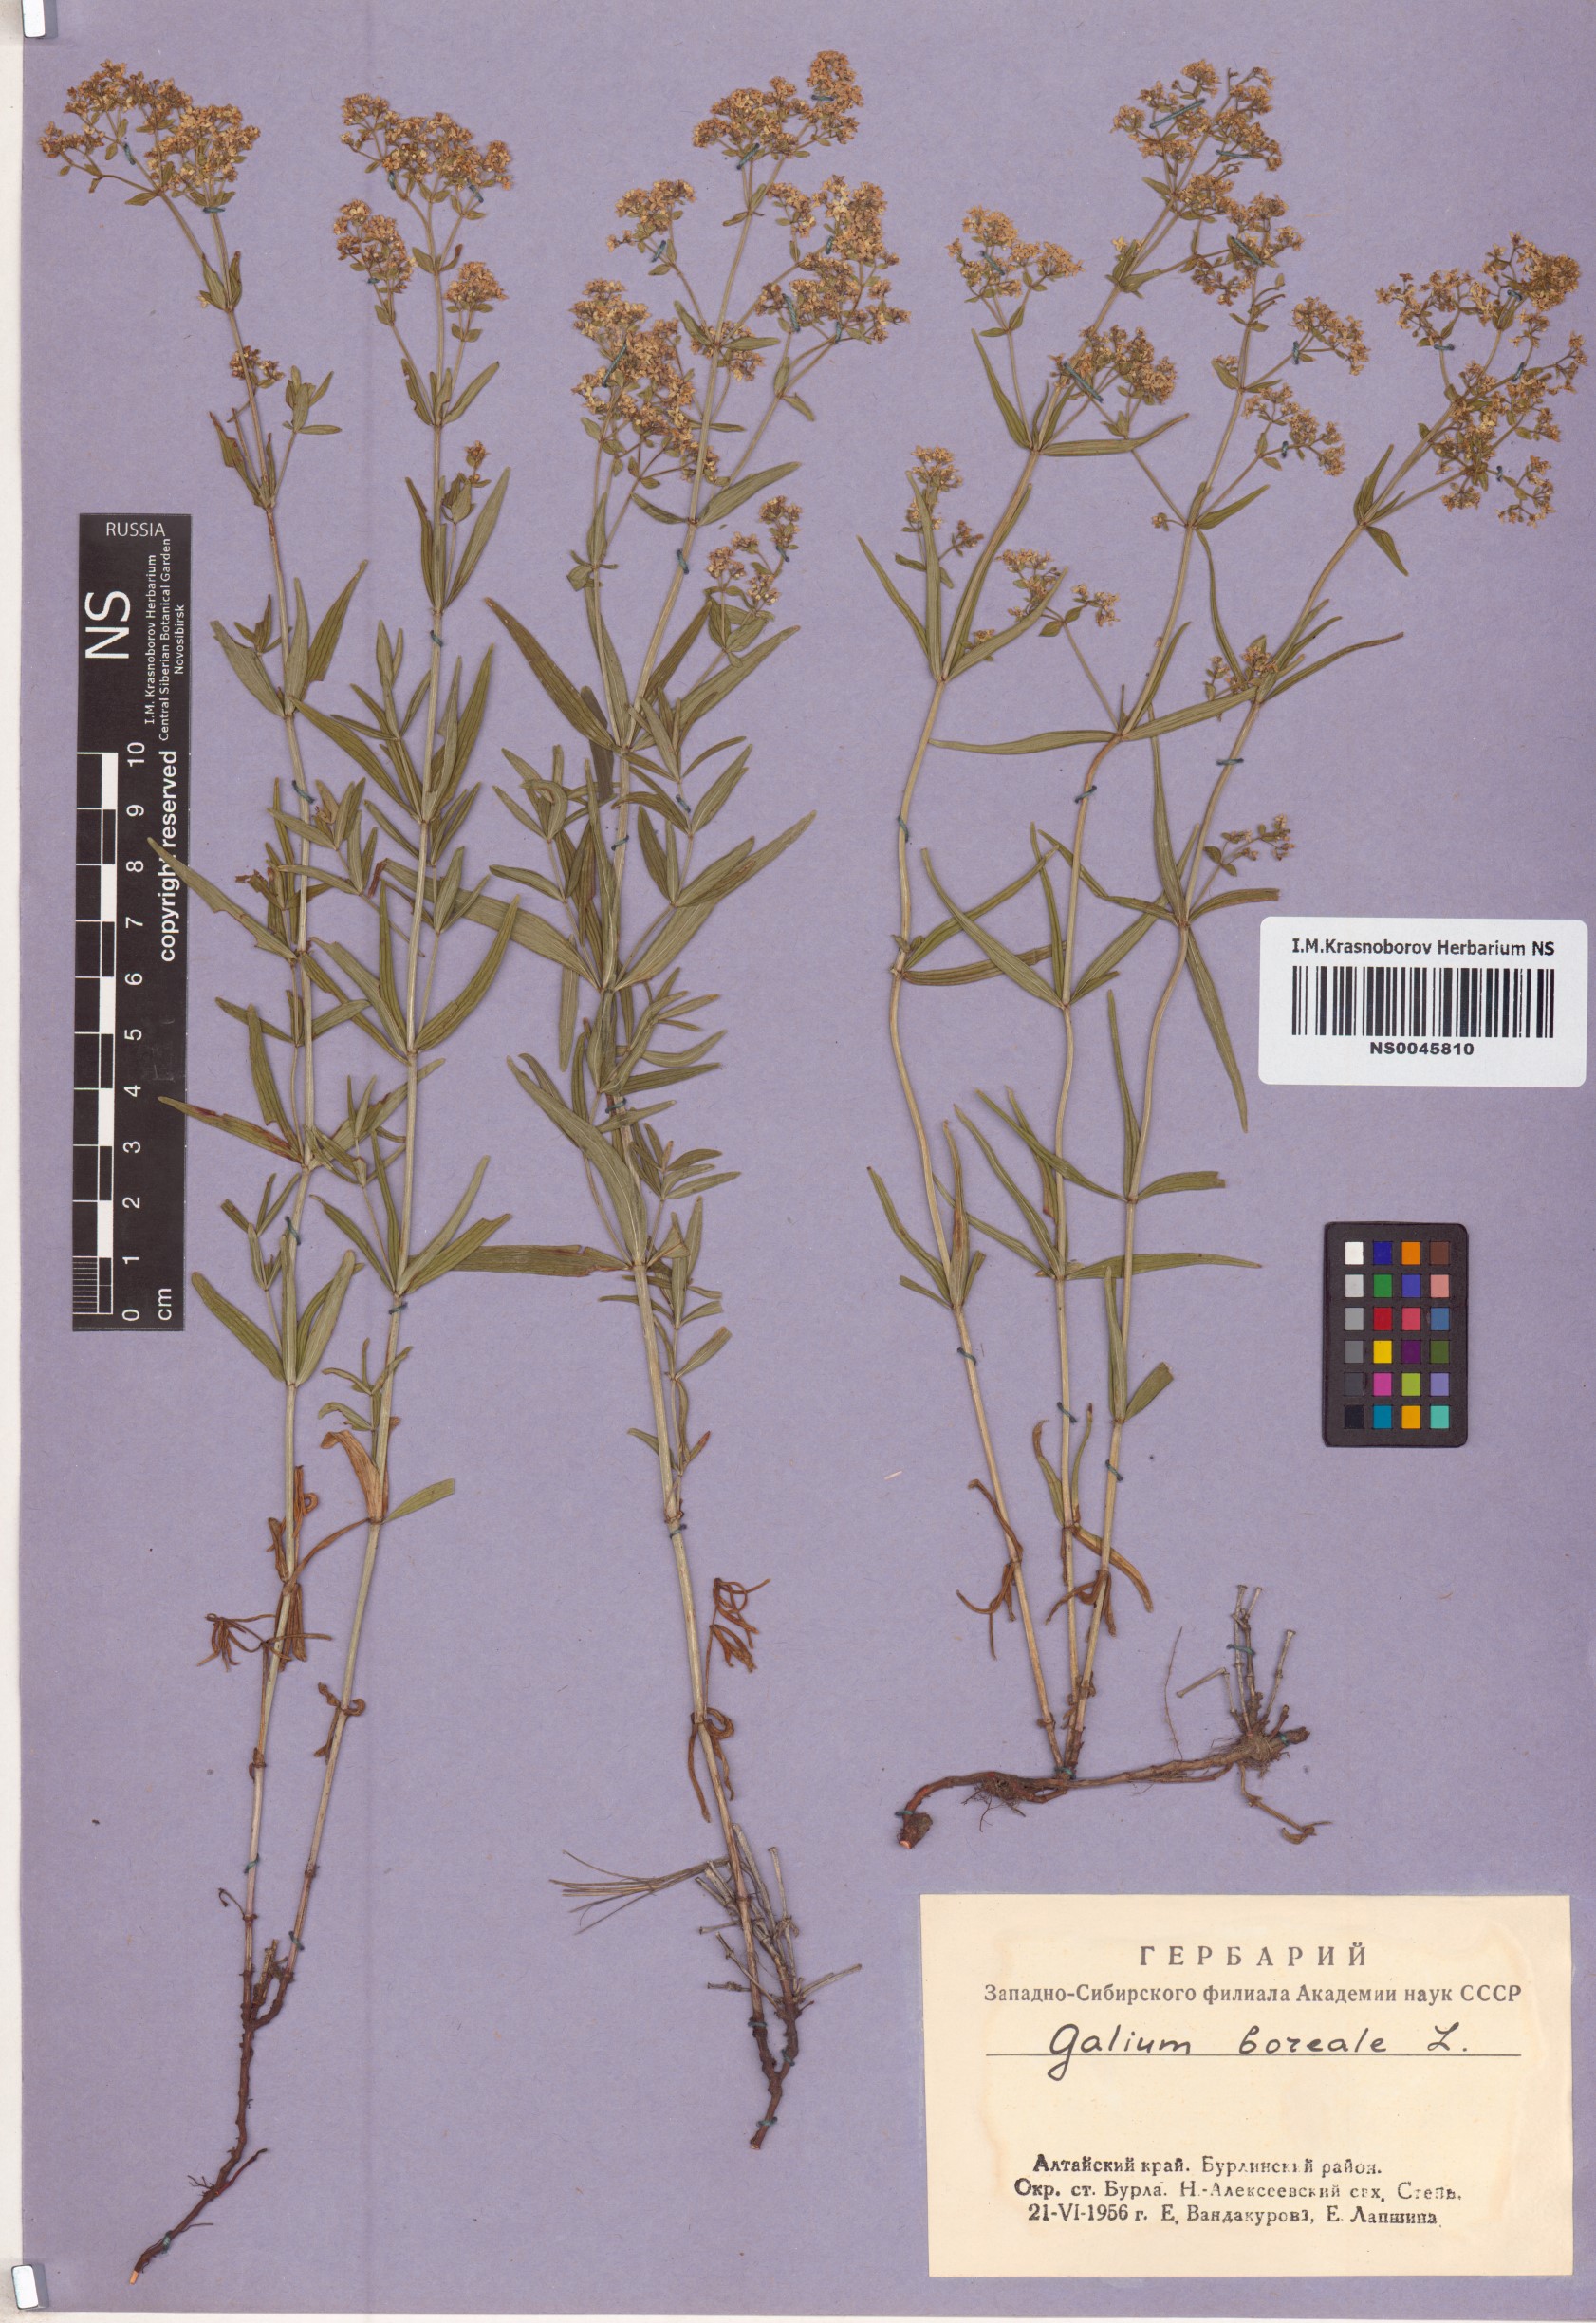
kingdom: Plantae
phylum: Tracheophyta
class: Magnoliopsida
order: Gentianales
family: Rubiaceae
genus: Galium
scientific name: Galium boreale
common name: Northern bedstraw
